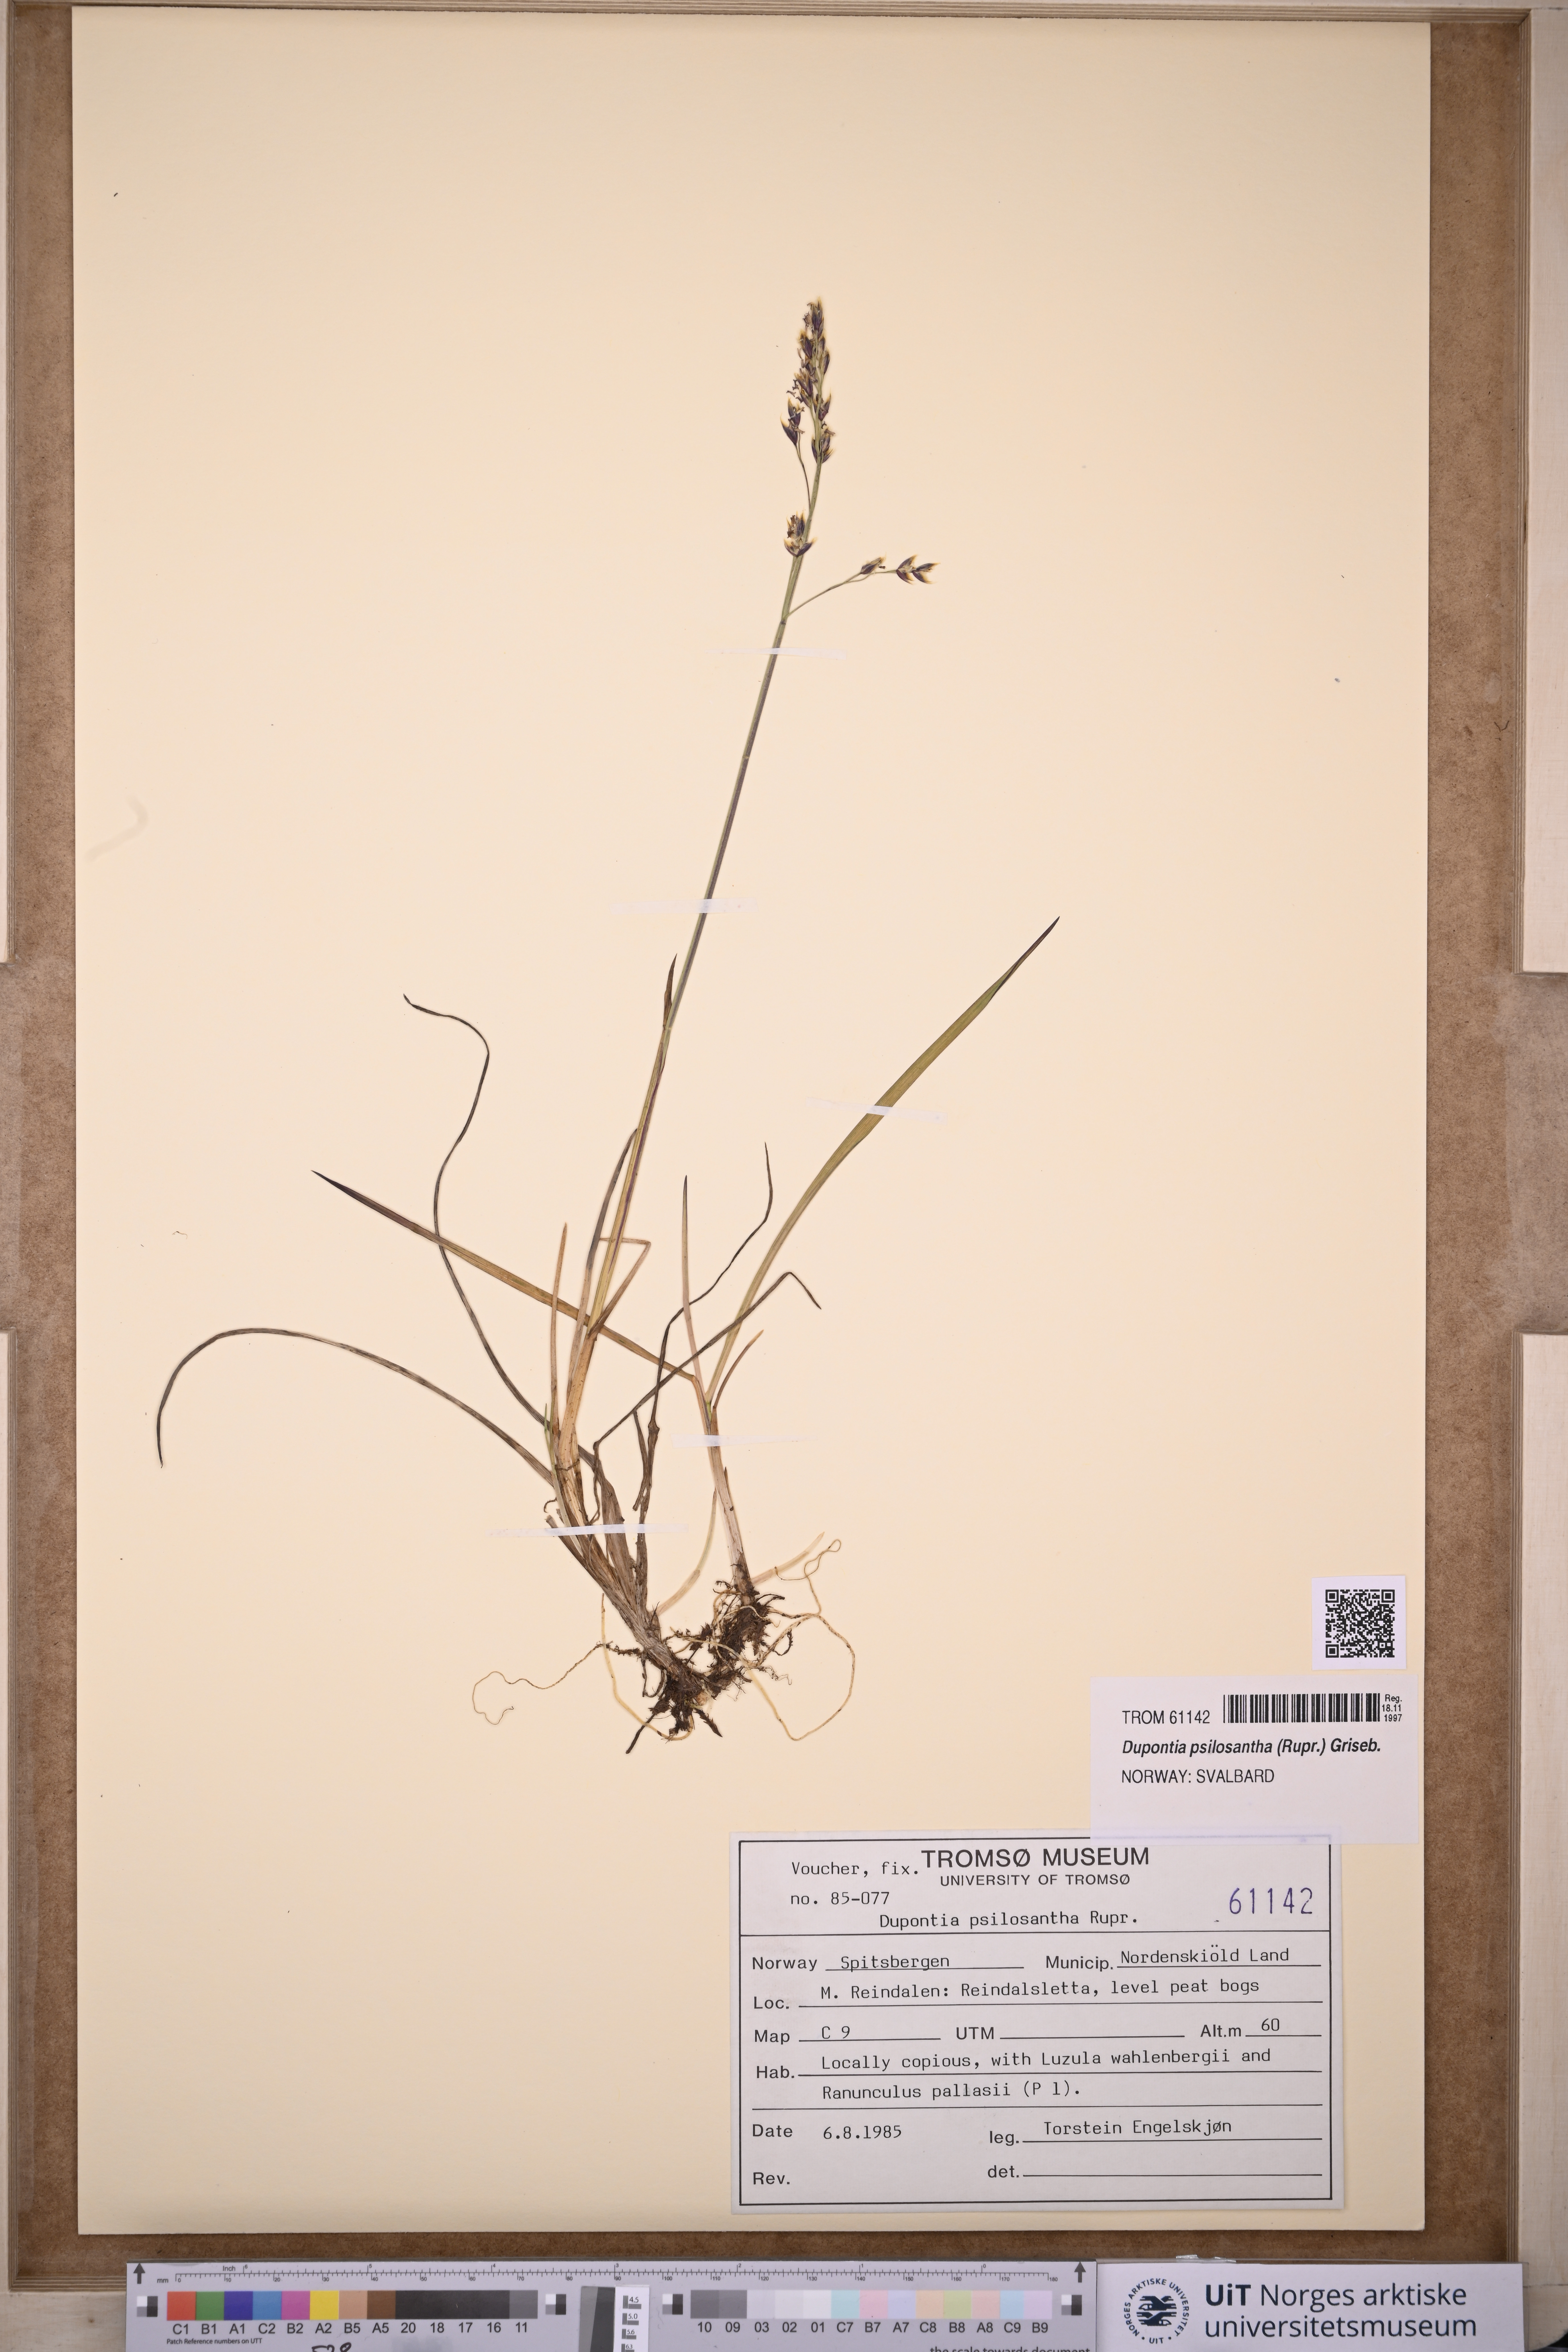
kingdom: Plantae
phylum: Tracheophyta
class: Liliopsida
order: Poales
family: Poaceae
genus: Dupontia
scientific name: Dupontia fisheri
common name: Tundra grass
